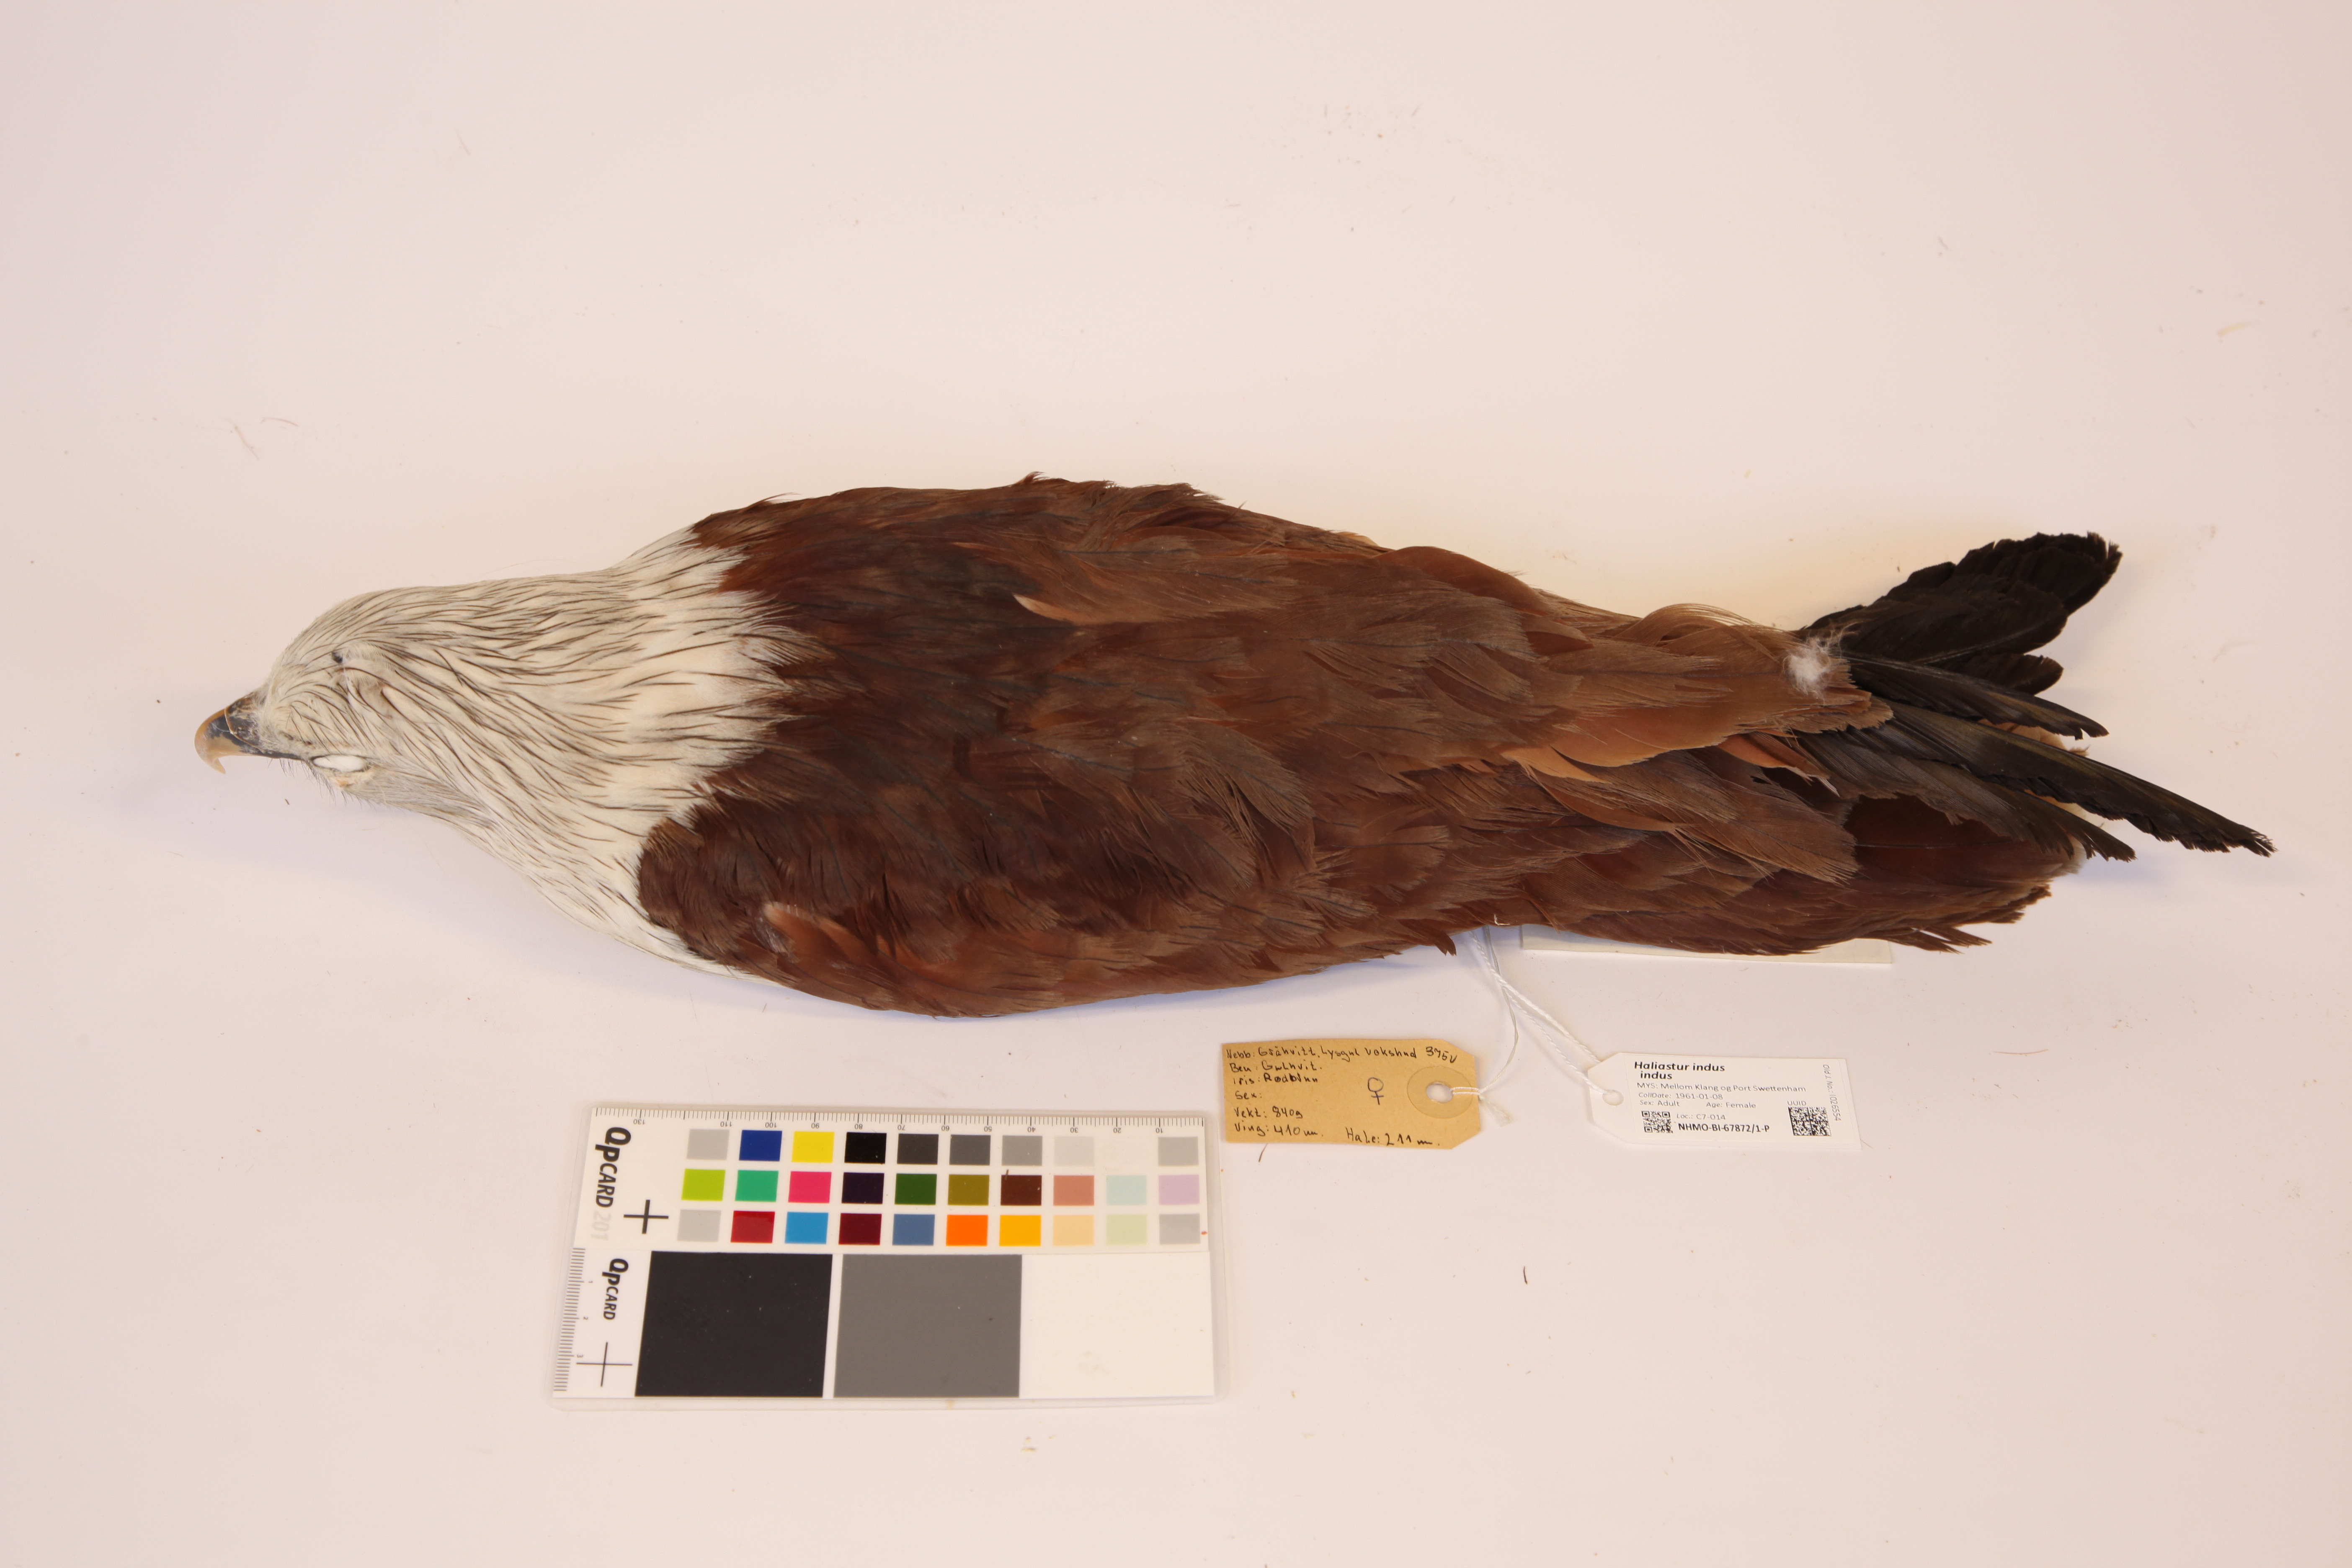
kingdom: Animalia
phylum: Chordata
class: Aves
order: Accipitriformes
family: Accipitridae
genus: Haliastur
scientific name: Haliastur indus
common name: Brahminy kite
